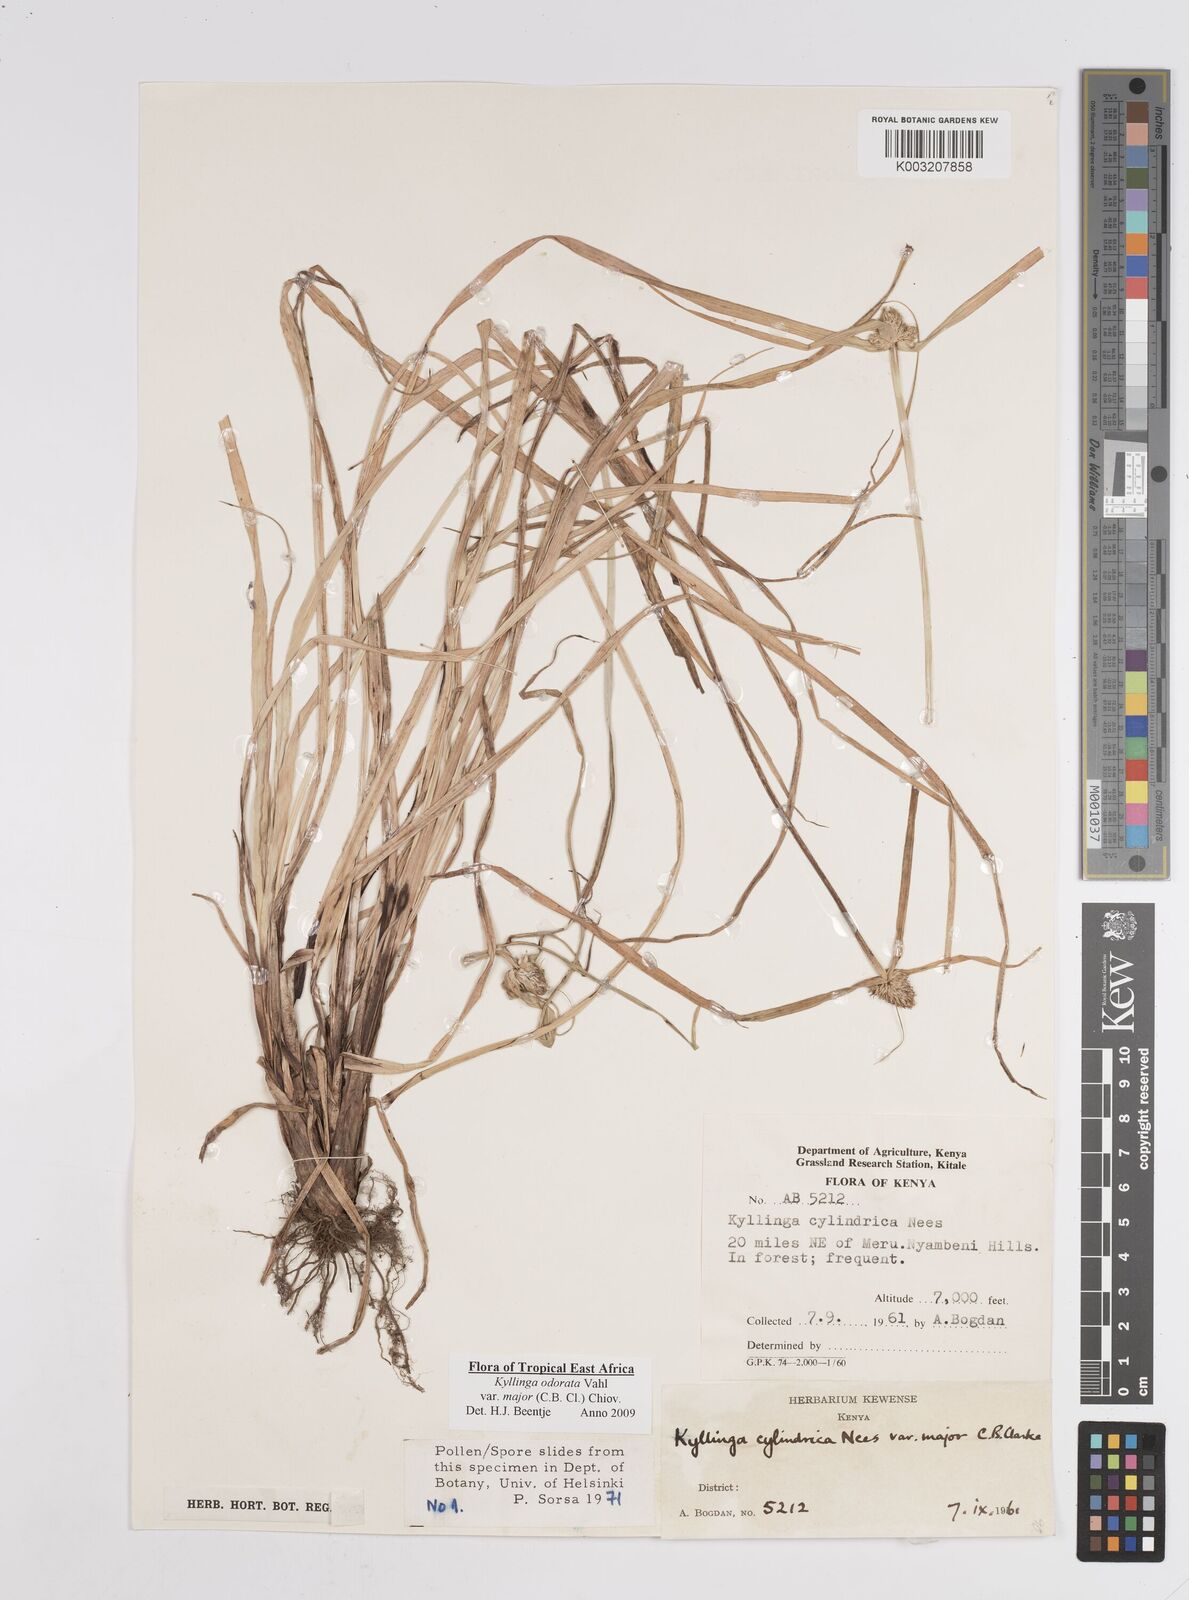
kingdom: Plantae
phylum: Tracheophyta
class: Liliopsida
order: Poales
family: Cyperaceae
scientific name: Cyperaceae
